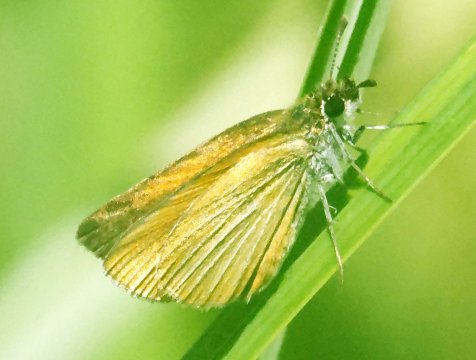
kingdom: Animalia
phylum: Arthropoda
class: Insecta
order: Lepidoptera
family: Hesperiidae
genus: Ancyloxypha
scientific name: Ancyloxypha numitor
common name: Least Skipper
